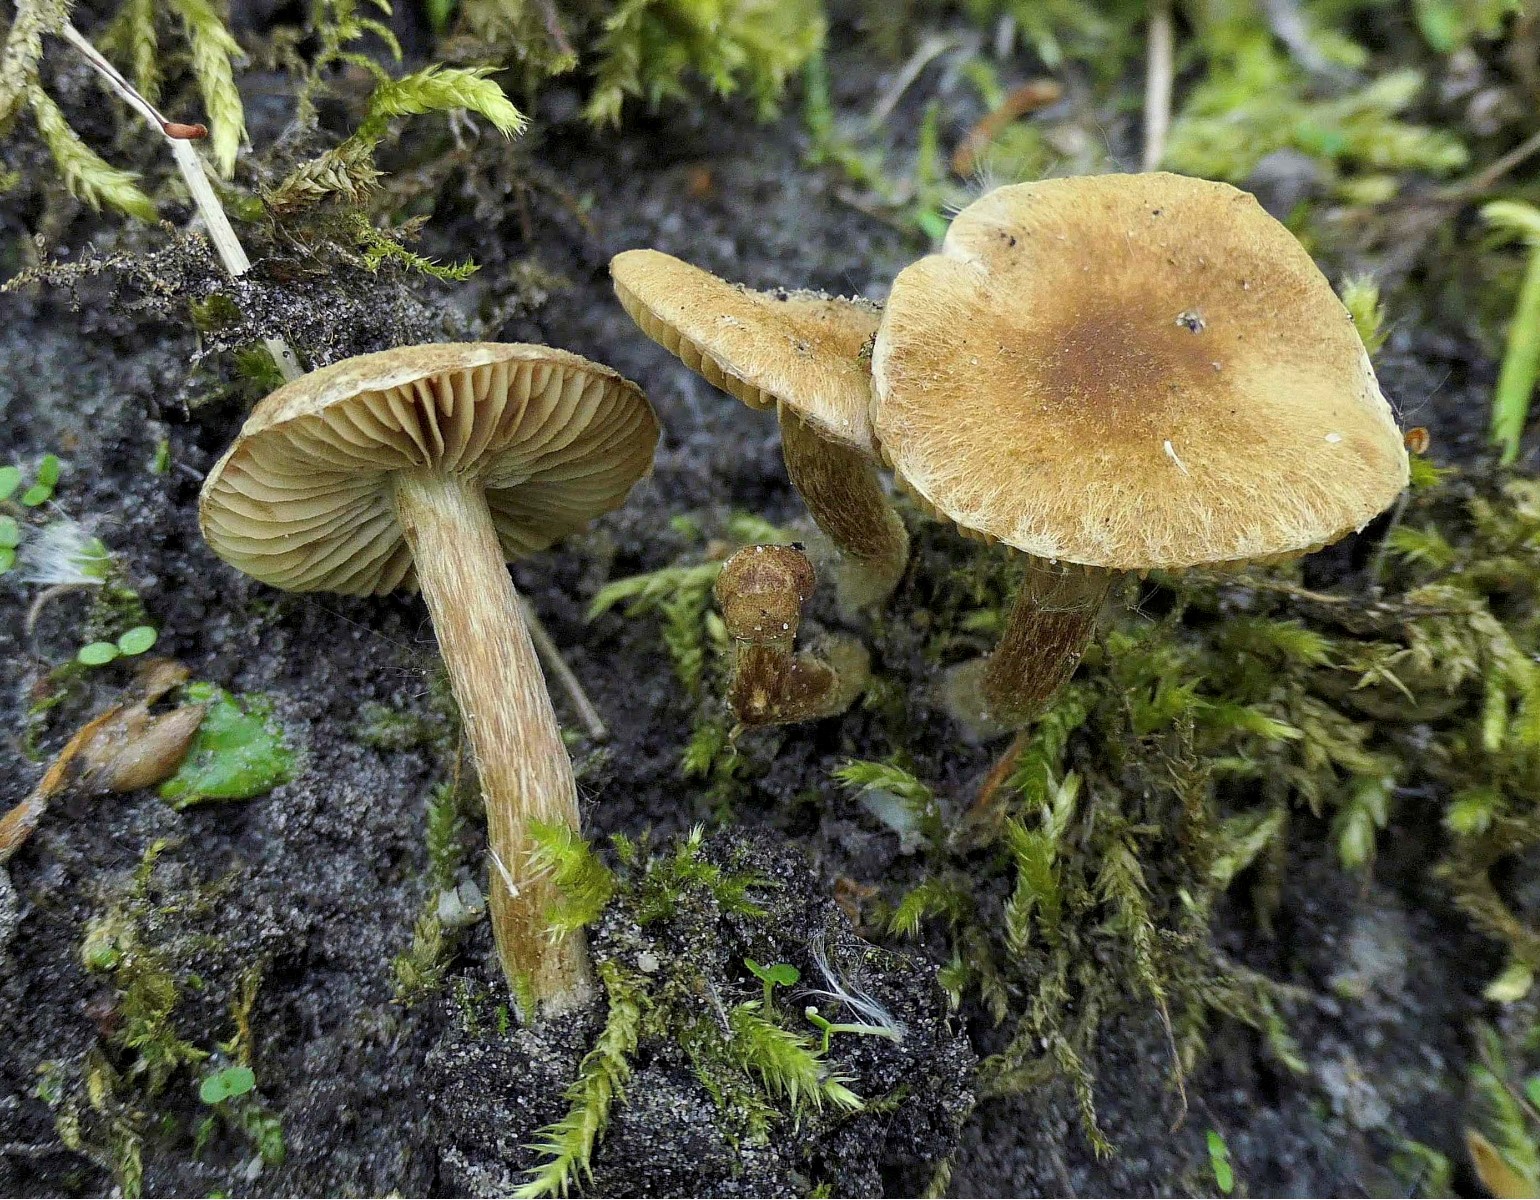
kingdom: Fungi
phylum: Basidiomycota
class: Agaricomycetes
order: Agaricales
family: Inocybaceae
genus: Inocybe
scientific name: Inocybe dulcamara
